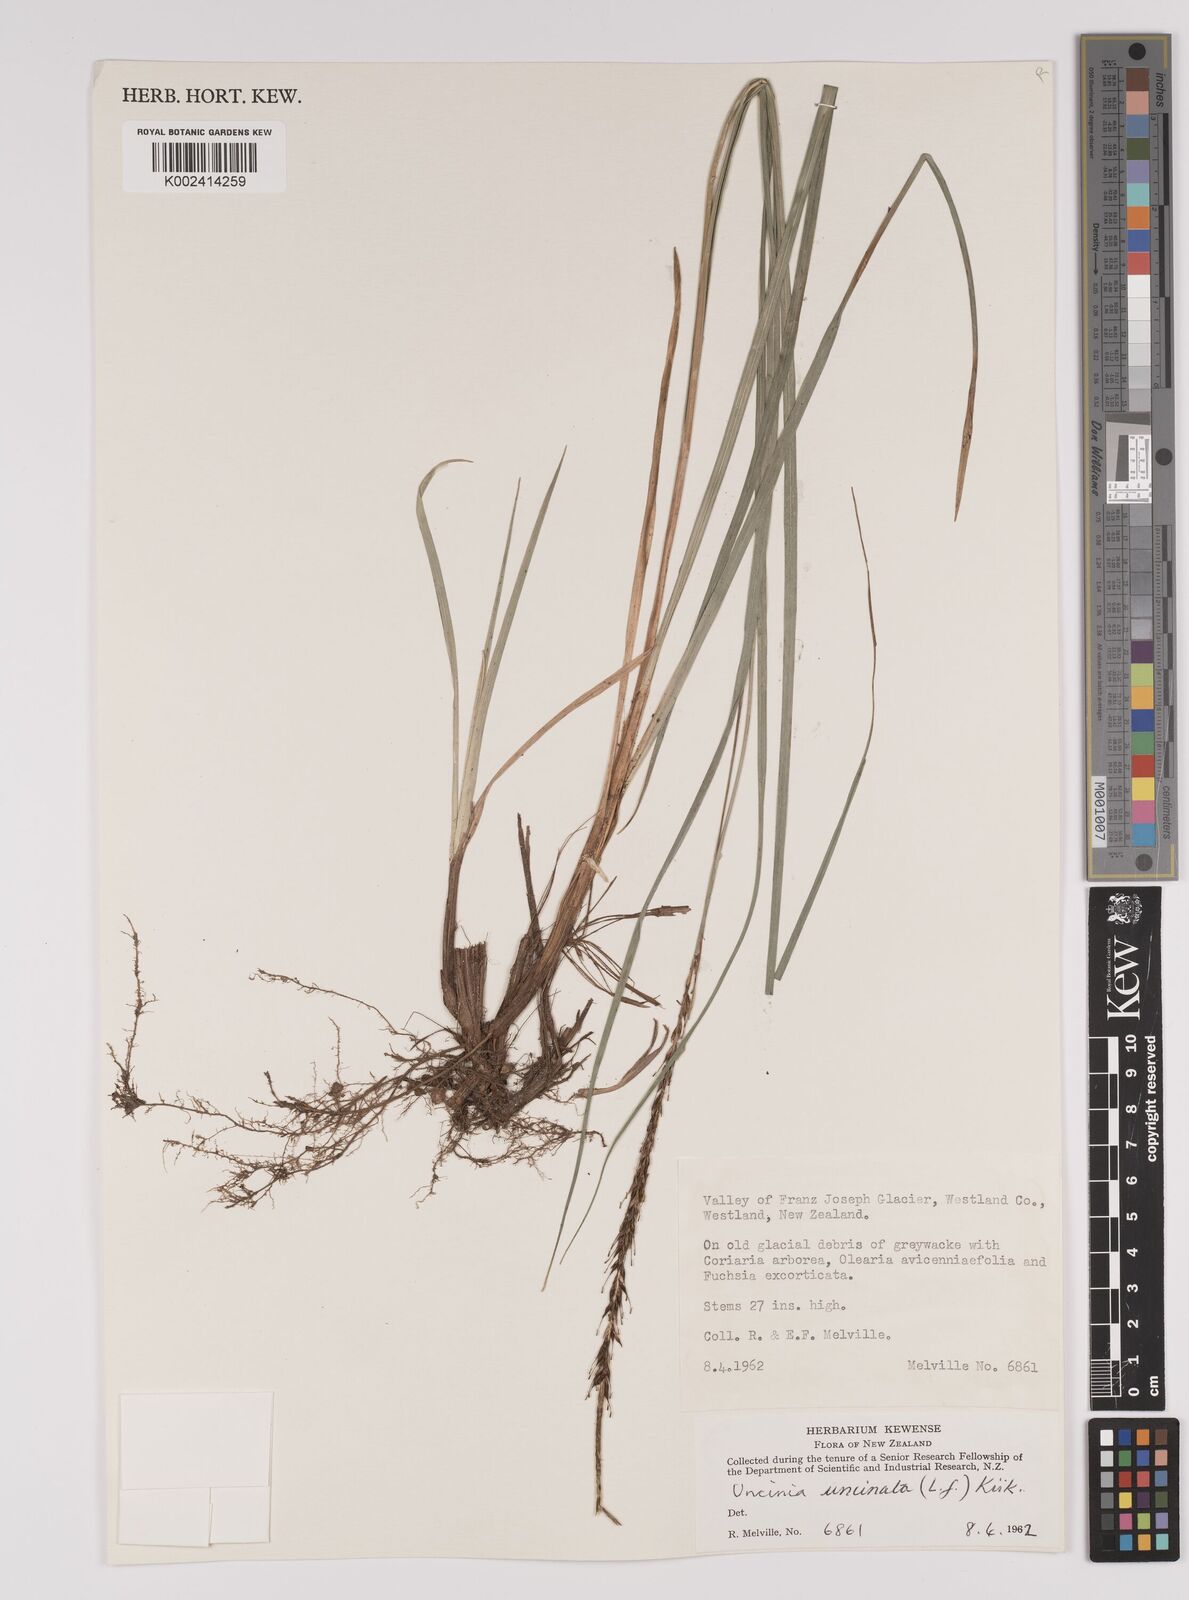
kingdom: Plantae
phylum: Tracheophyta
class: Liliopsida
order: Poales
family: Cyperaceae
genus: Carex
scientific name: Carex uncinata
